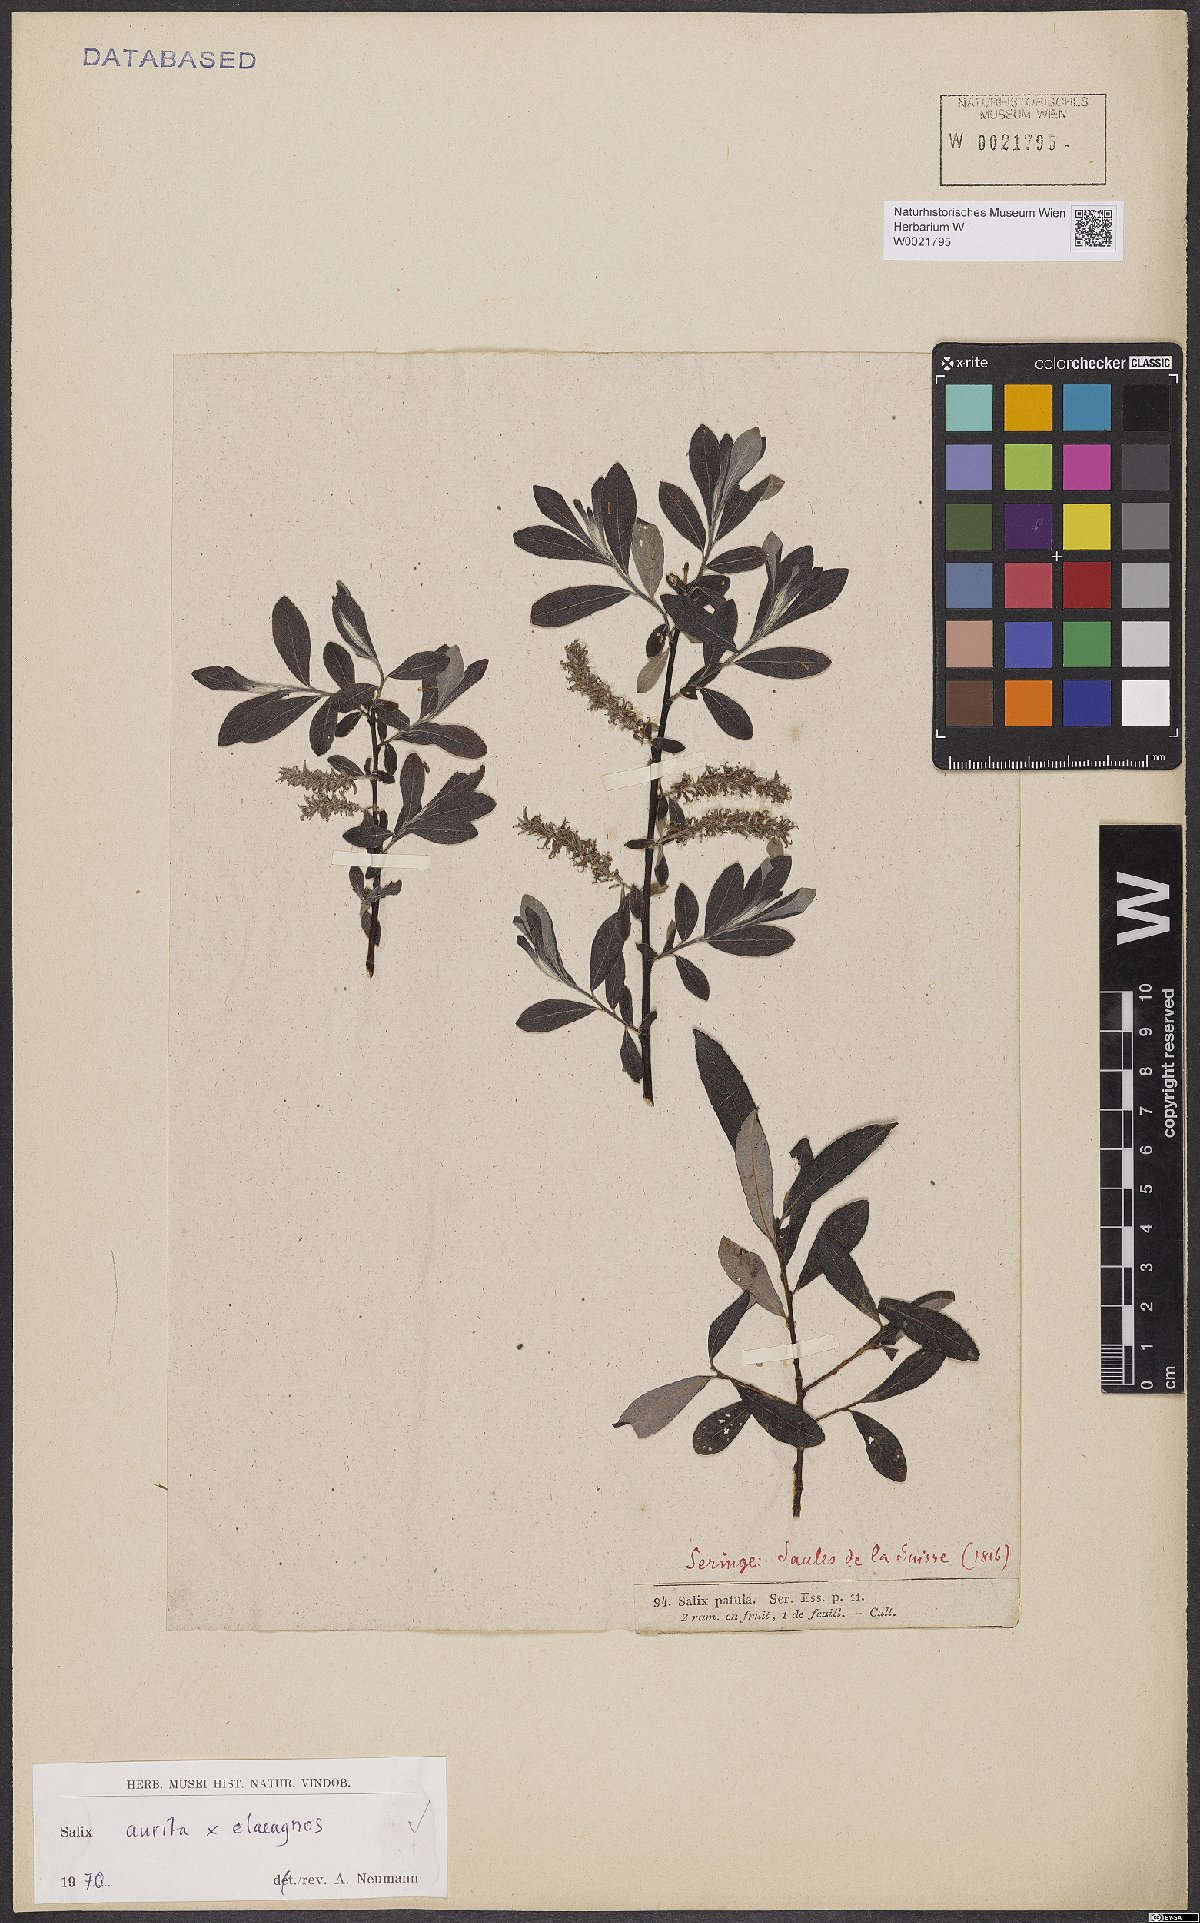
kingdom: Plantae
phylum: Tracheophyta
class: Magnoliopsida
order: Malpighiales
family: Salicaceae
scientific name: Salicaceae
